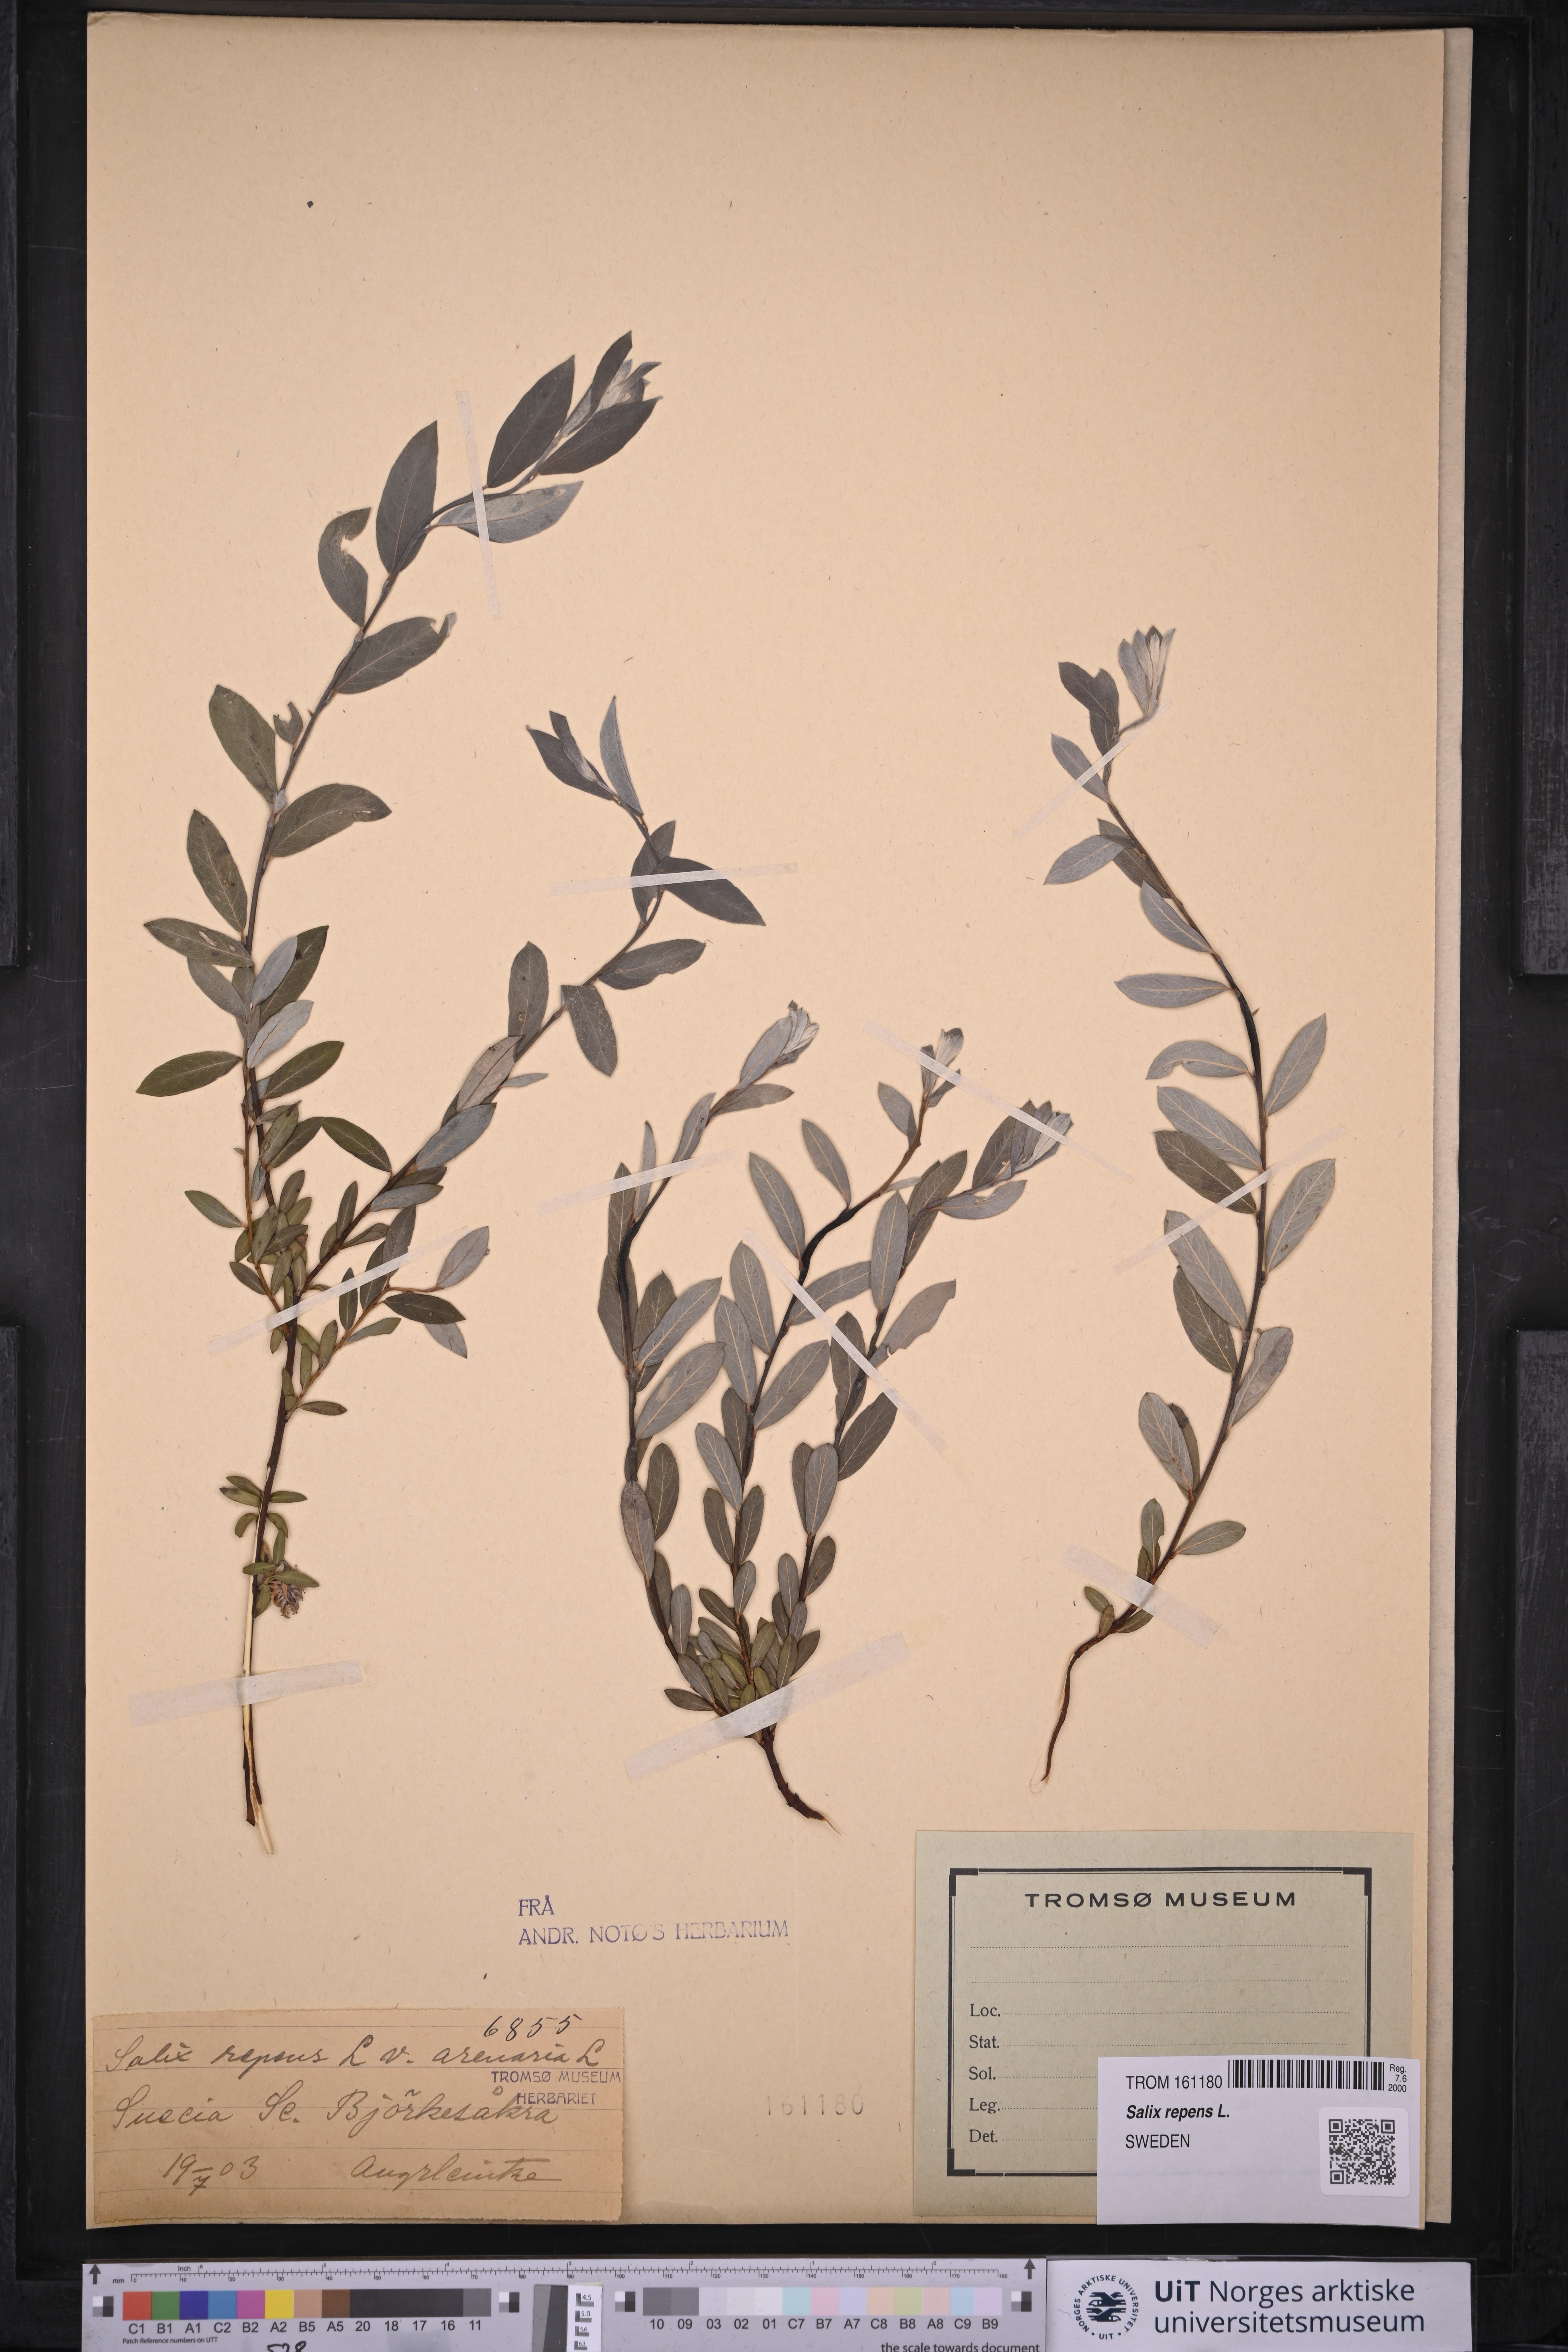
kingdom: Plantae
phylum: Tracheophyta
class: Magnoliopsida
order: Malpighiales
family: Salicaceae
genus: Salix
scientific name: Salix repens
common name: Creeping willow
